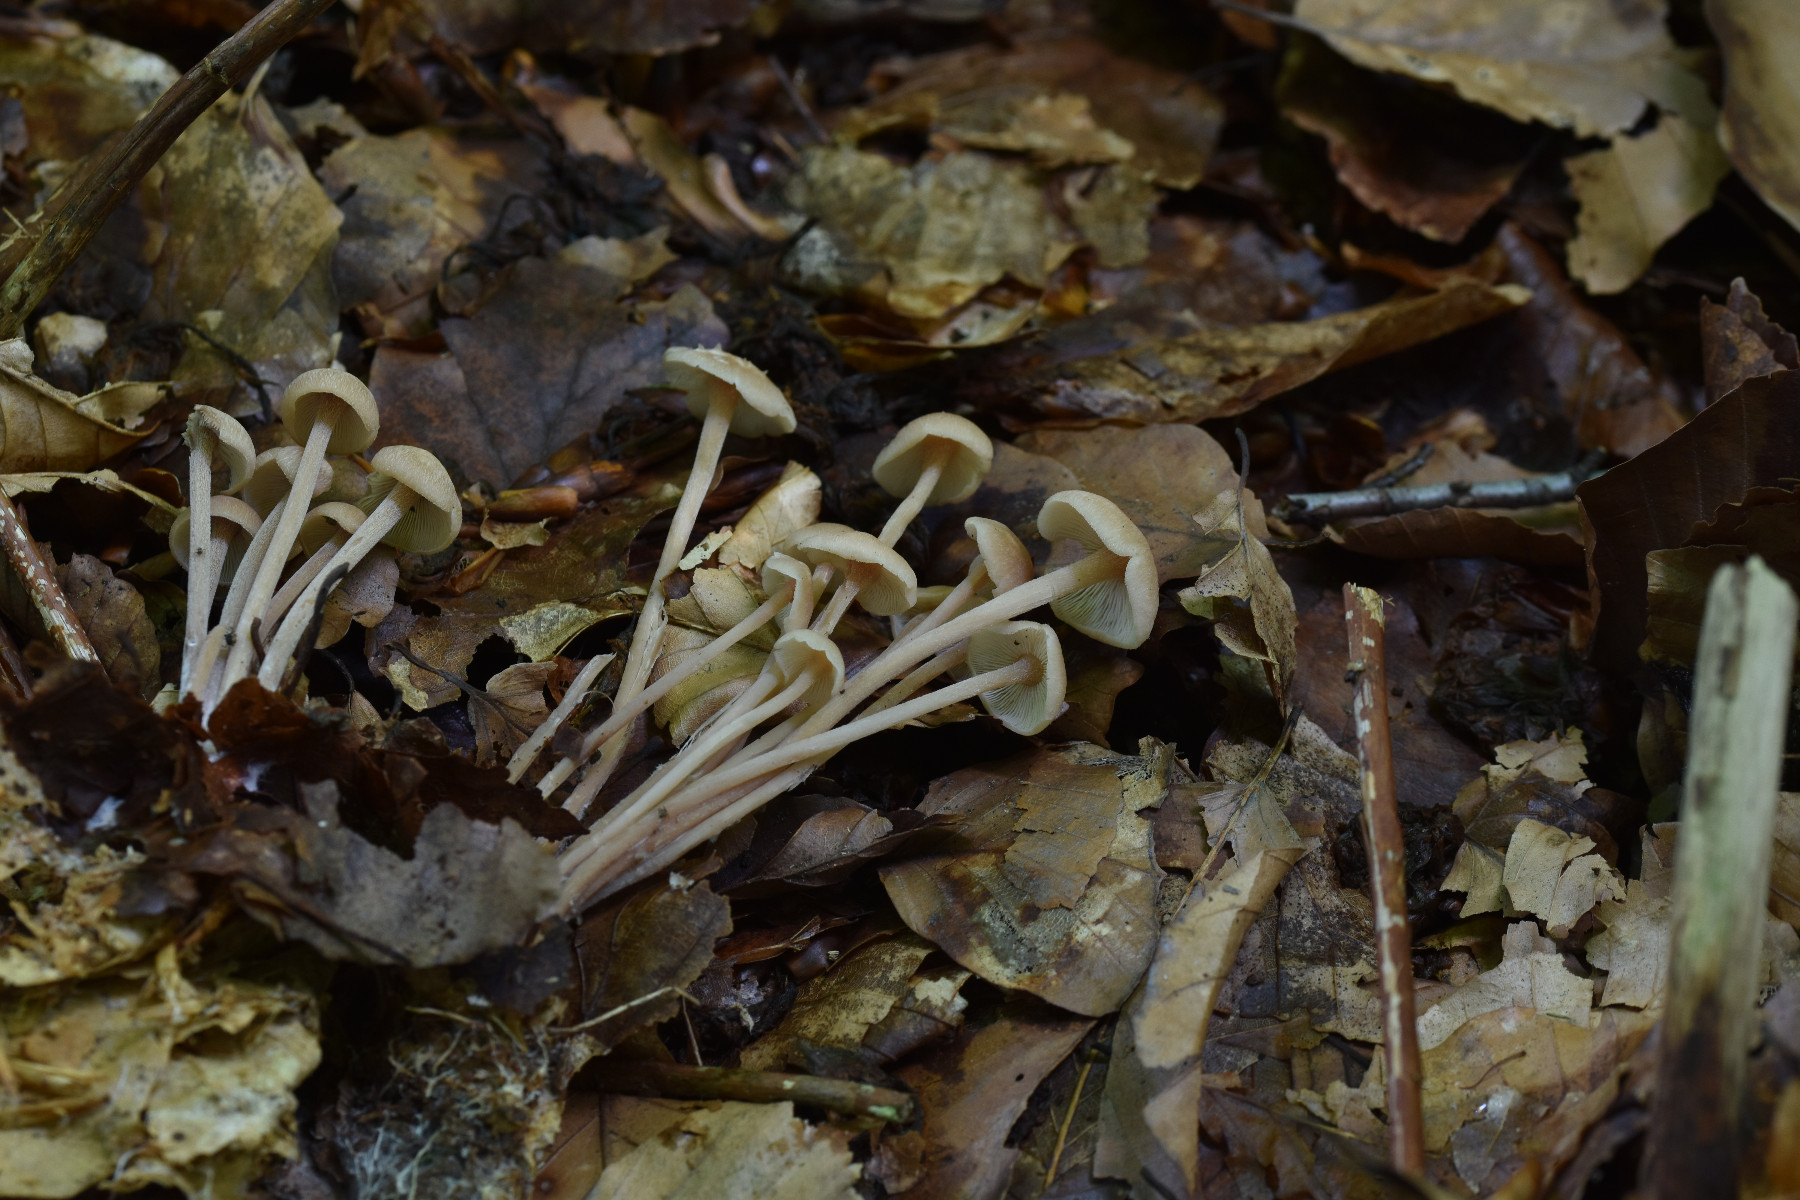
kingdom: Fungi
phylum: Basidiomycota
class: Agaricomycetes
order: Agaricales
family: Omphalotaceae
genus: Collybiopsis
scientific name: Collybiopsis confluens
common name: knippe-fladhat
